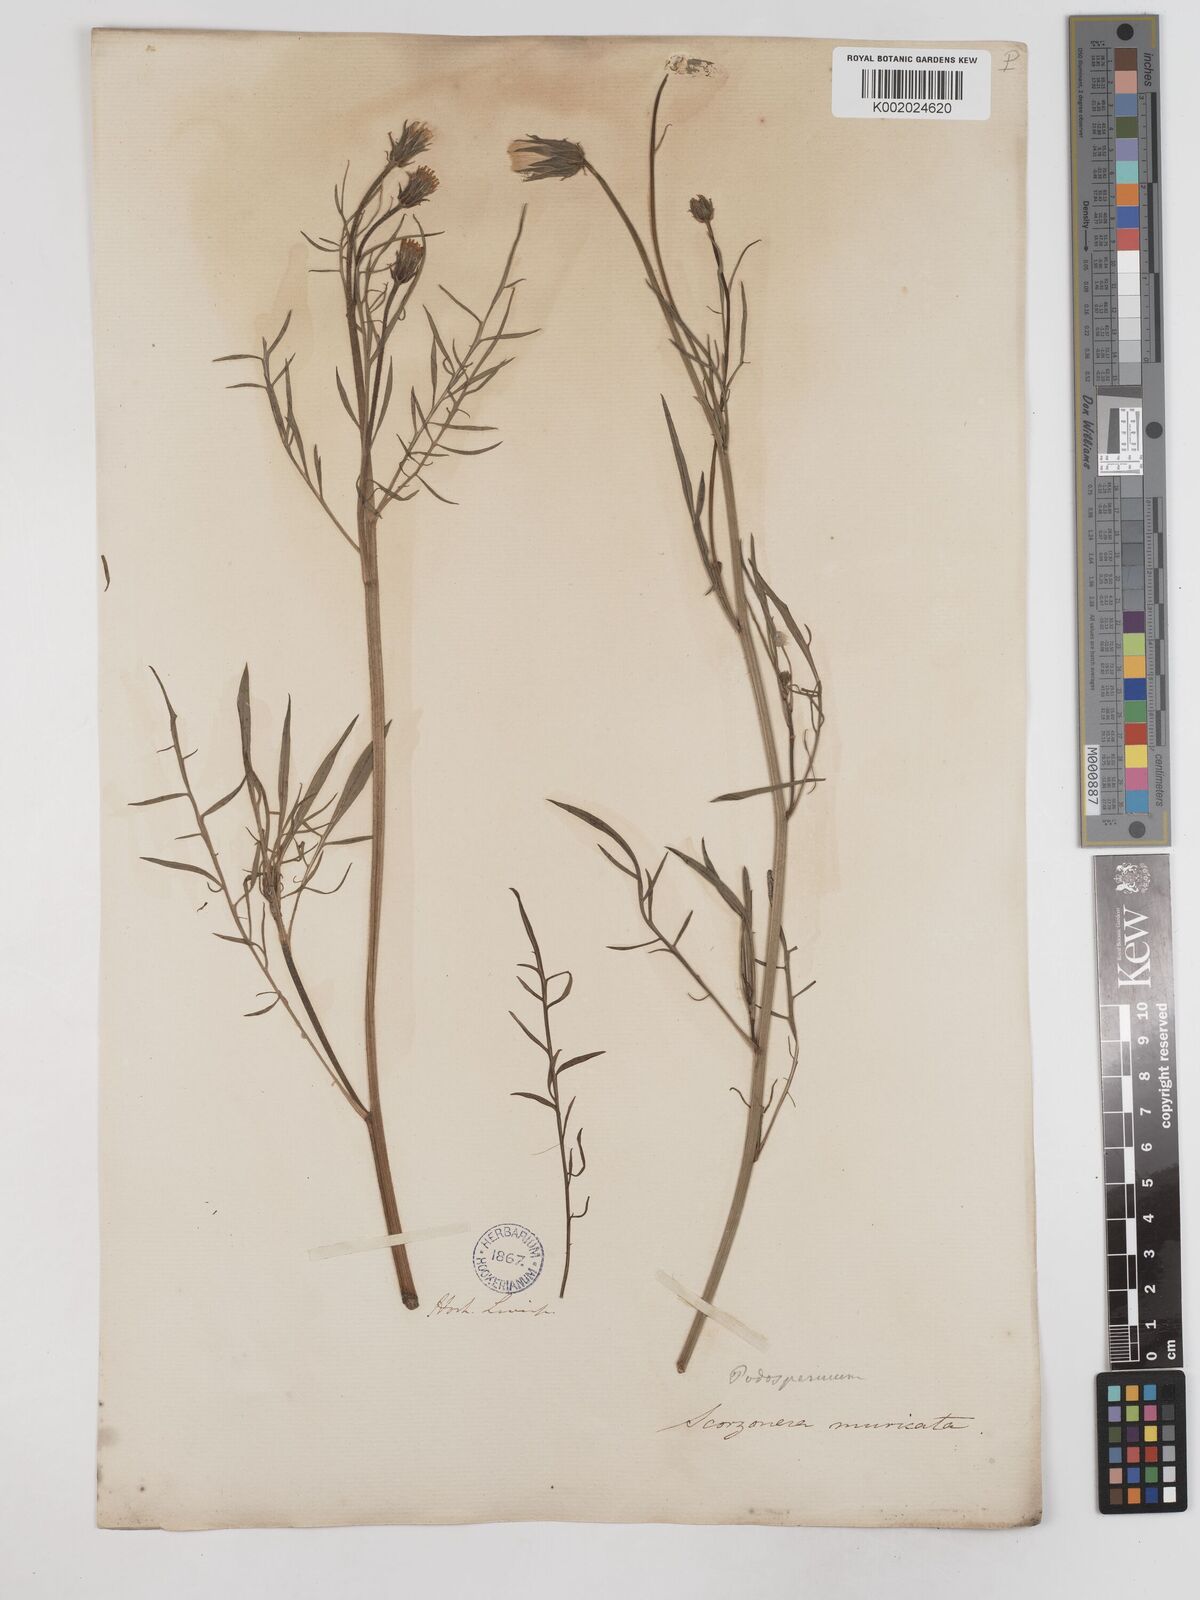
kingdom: Plantae
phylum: Tracheophyta
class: Magnoliopsida
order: Asterales
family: Asteraceae
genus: Scorzonera
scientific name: Scorzonera laciniata
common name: Cutleaf vipergrass
